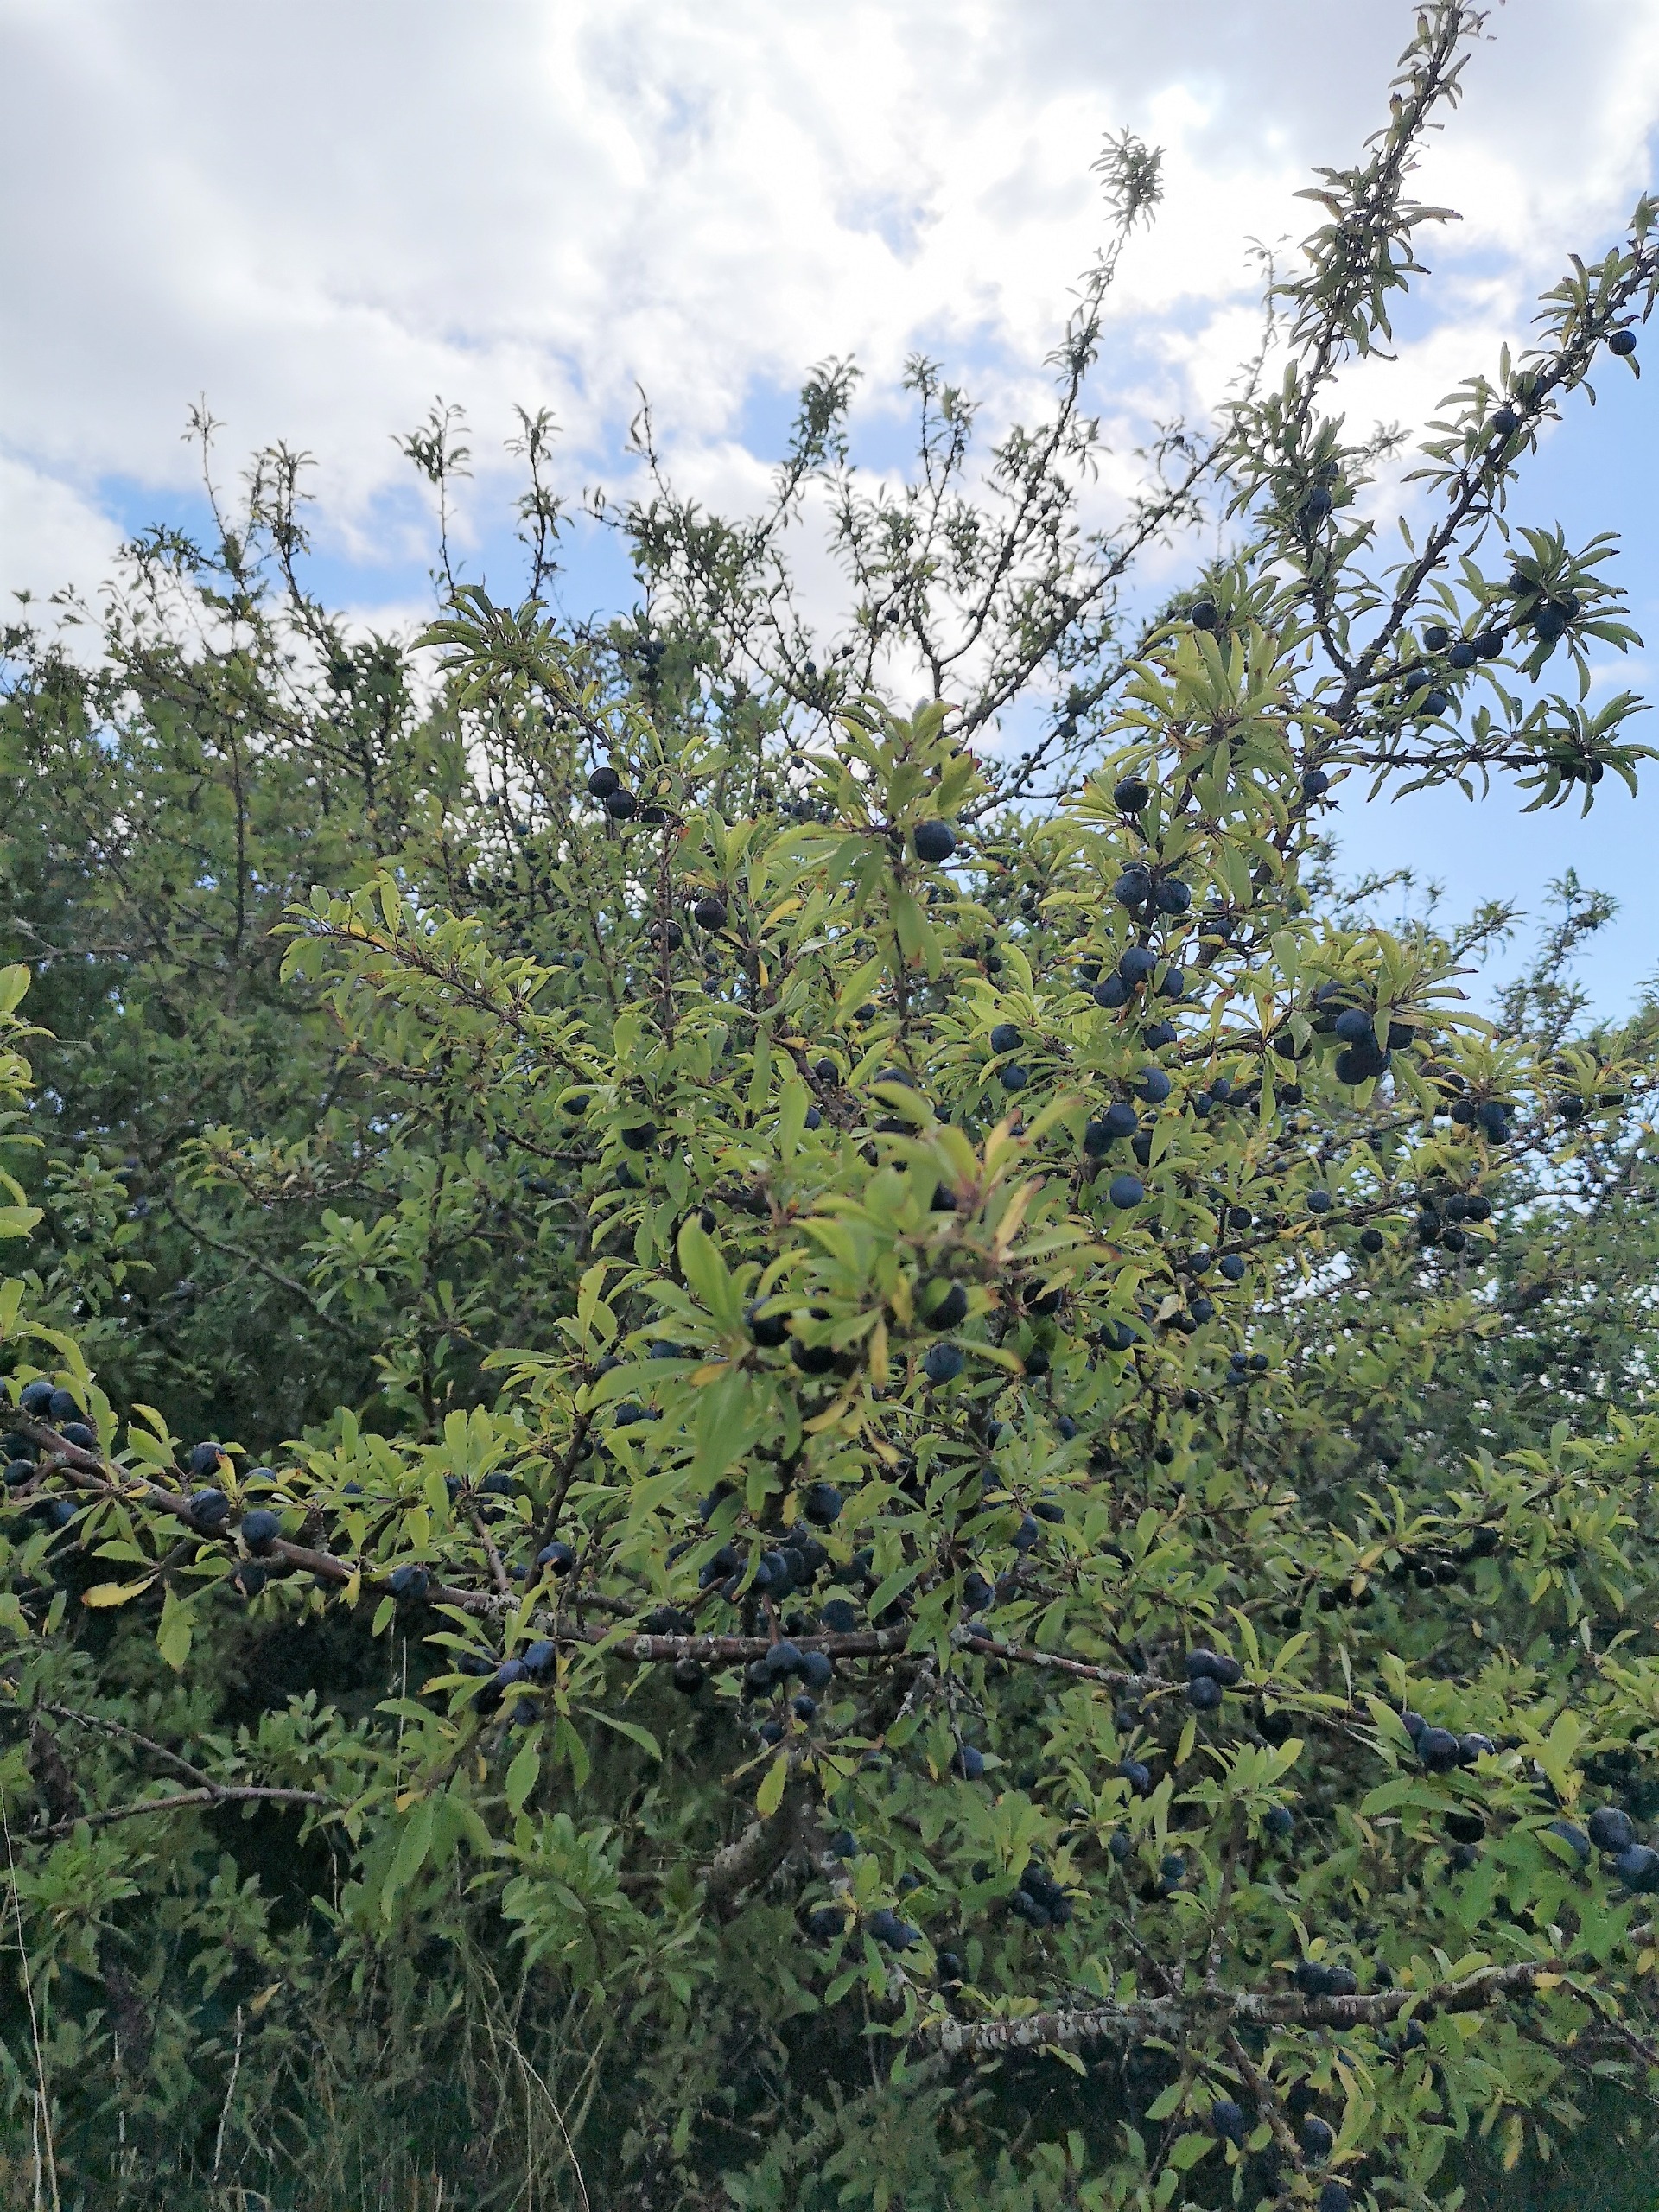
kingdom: Plantae
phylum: Tracheophyta
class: Magnoliopsida
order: Rosales
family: Rosaceae
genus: Prunus
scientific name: Prunus spinosa
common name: Slåen
